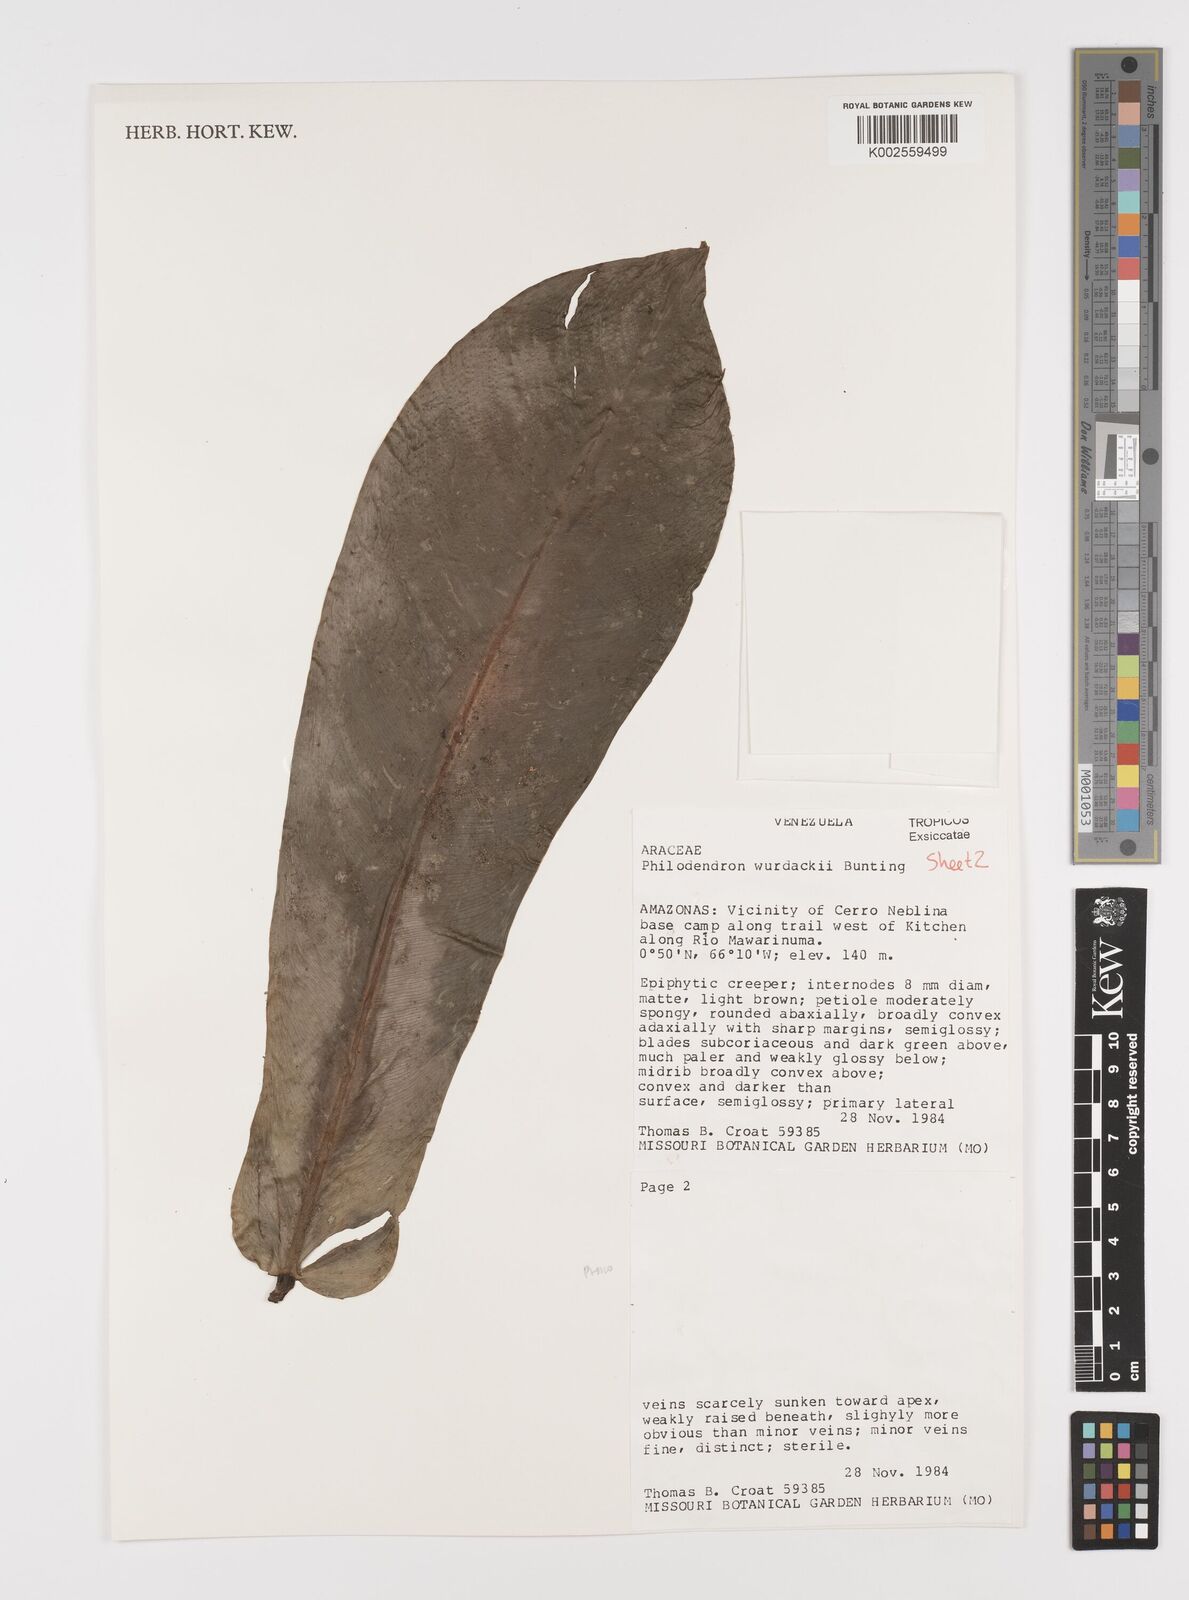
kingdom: Plantae
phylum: Tracheophyta
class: Liliopsida
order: Alismatales
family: Araceae
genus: Philodendron
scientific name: Philodendron wurdackii
